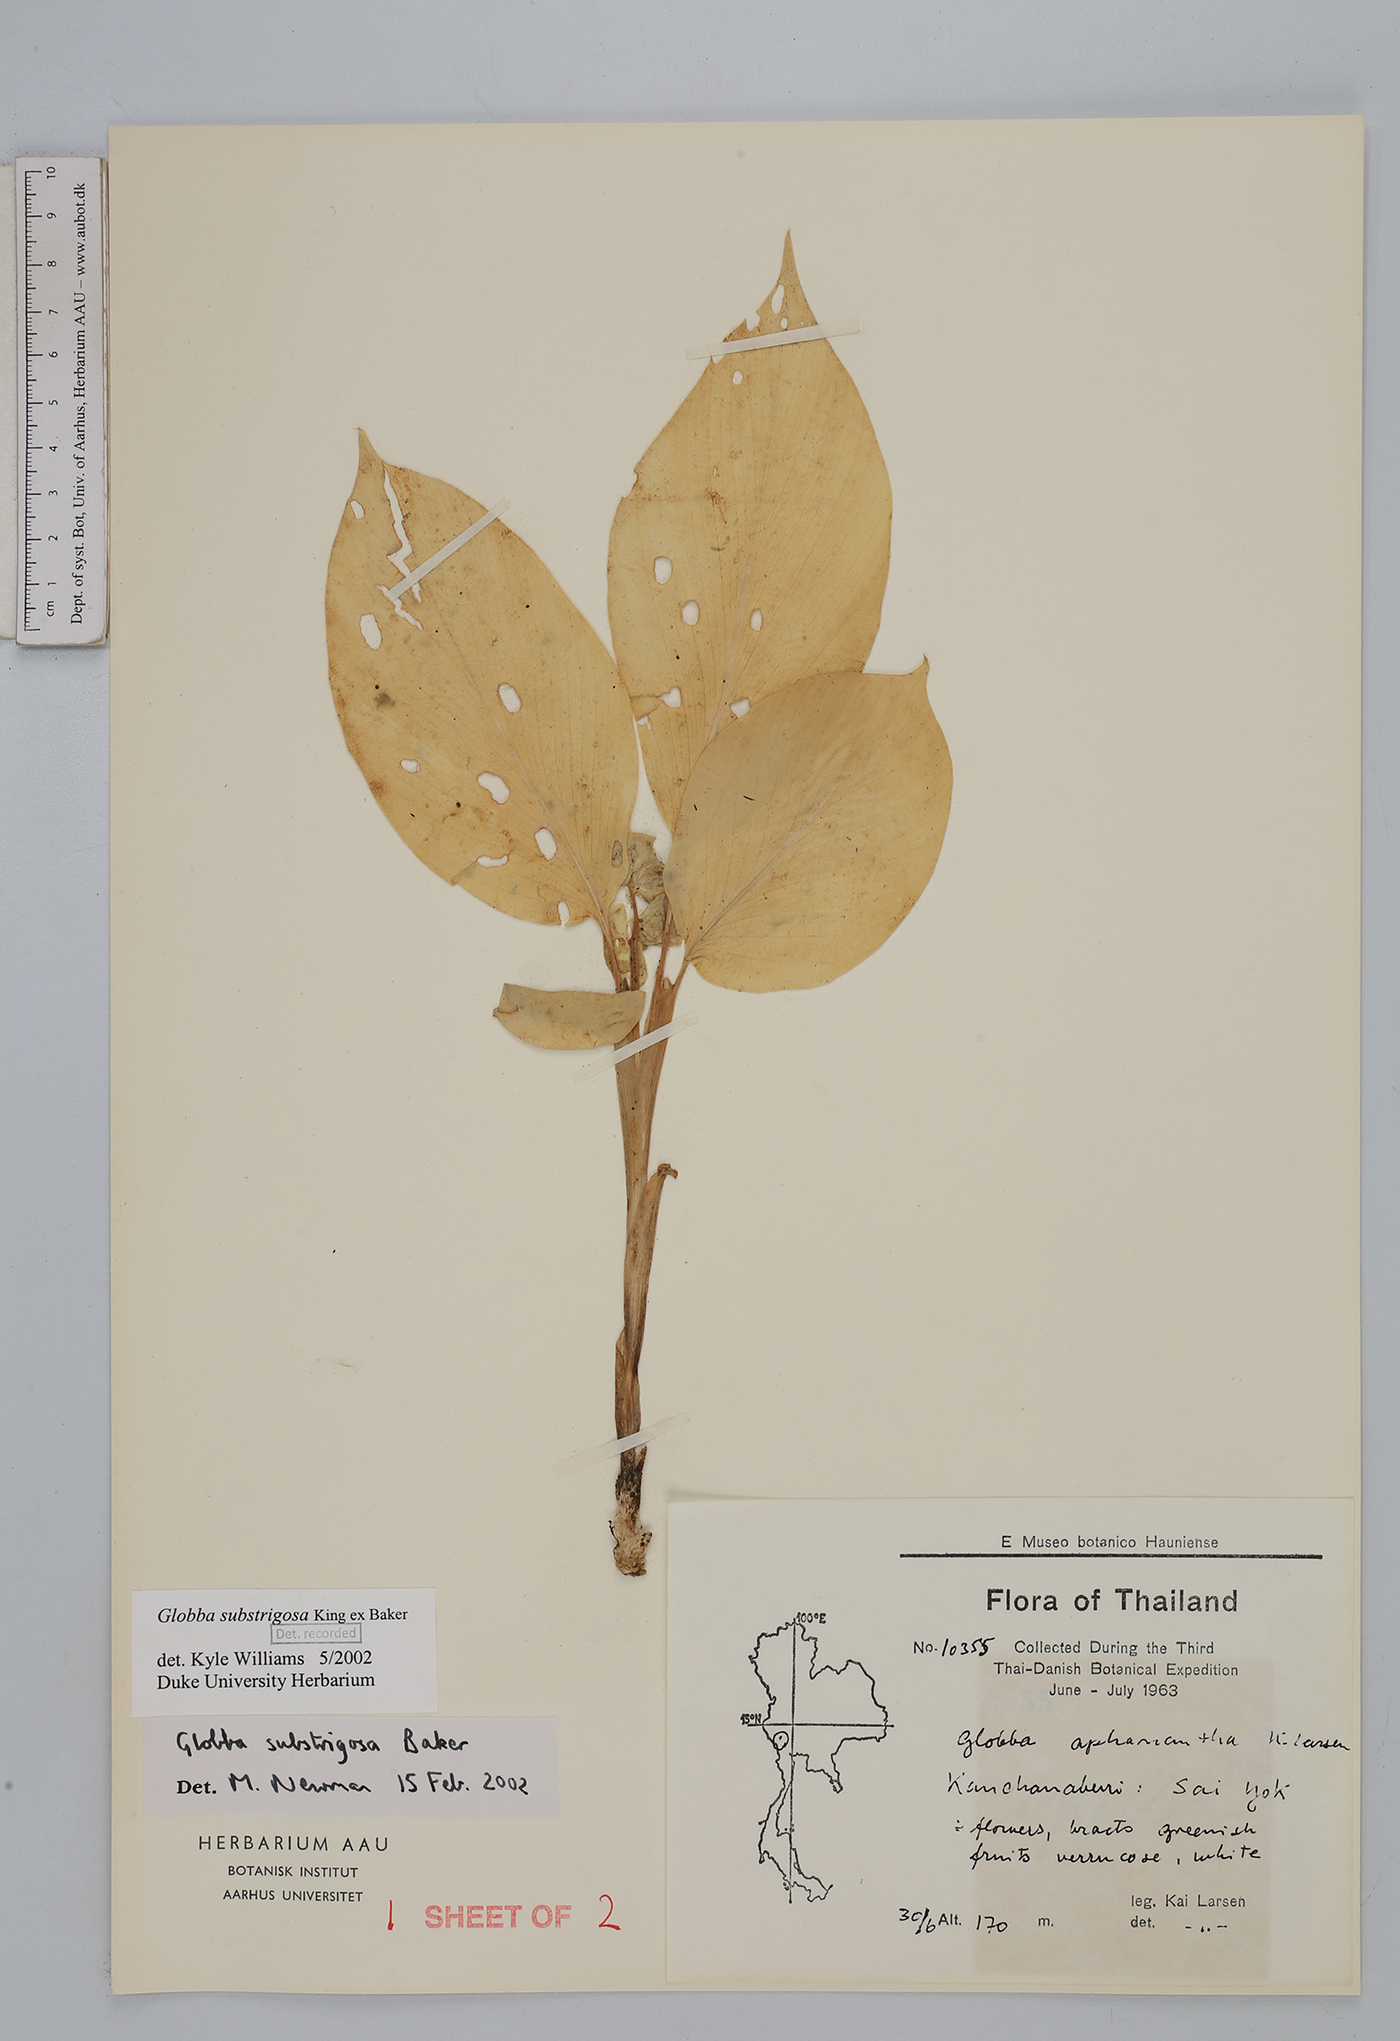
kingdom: Plantae
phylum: Tracheophyta
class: Liliopsida
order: Zingiberales
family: Zingiberaceae
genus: Globba
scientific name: Globba substrigosa
